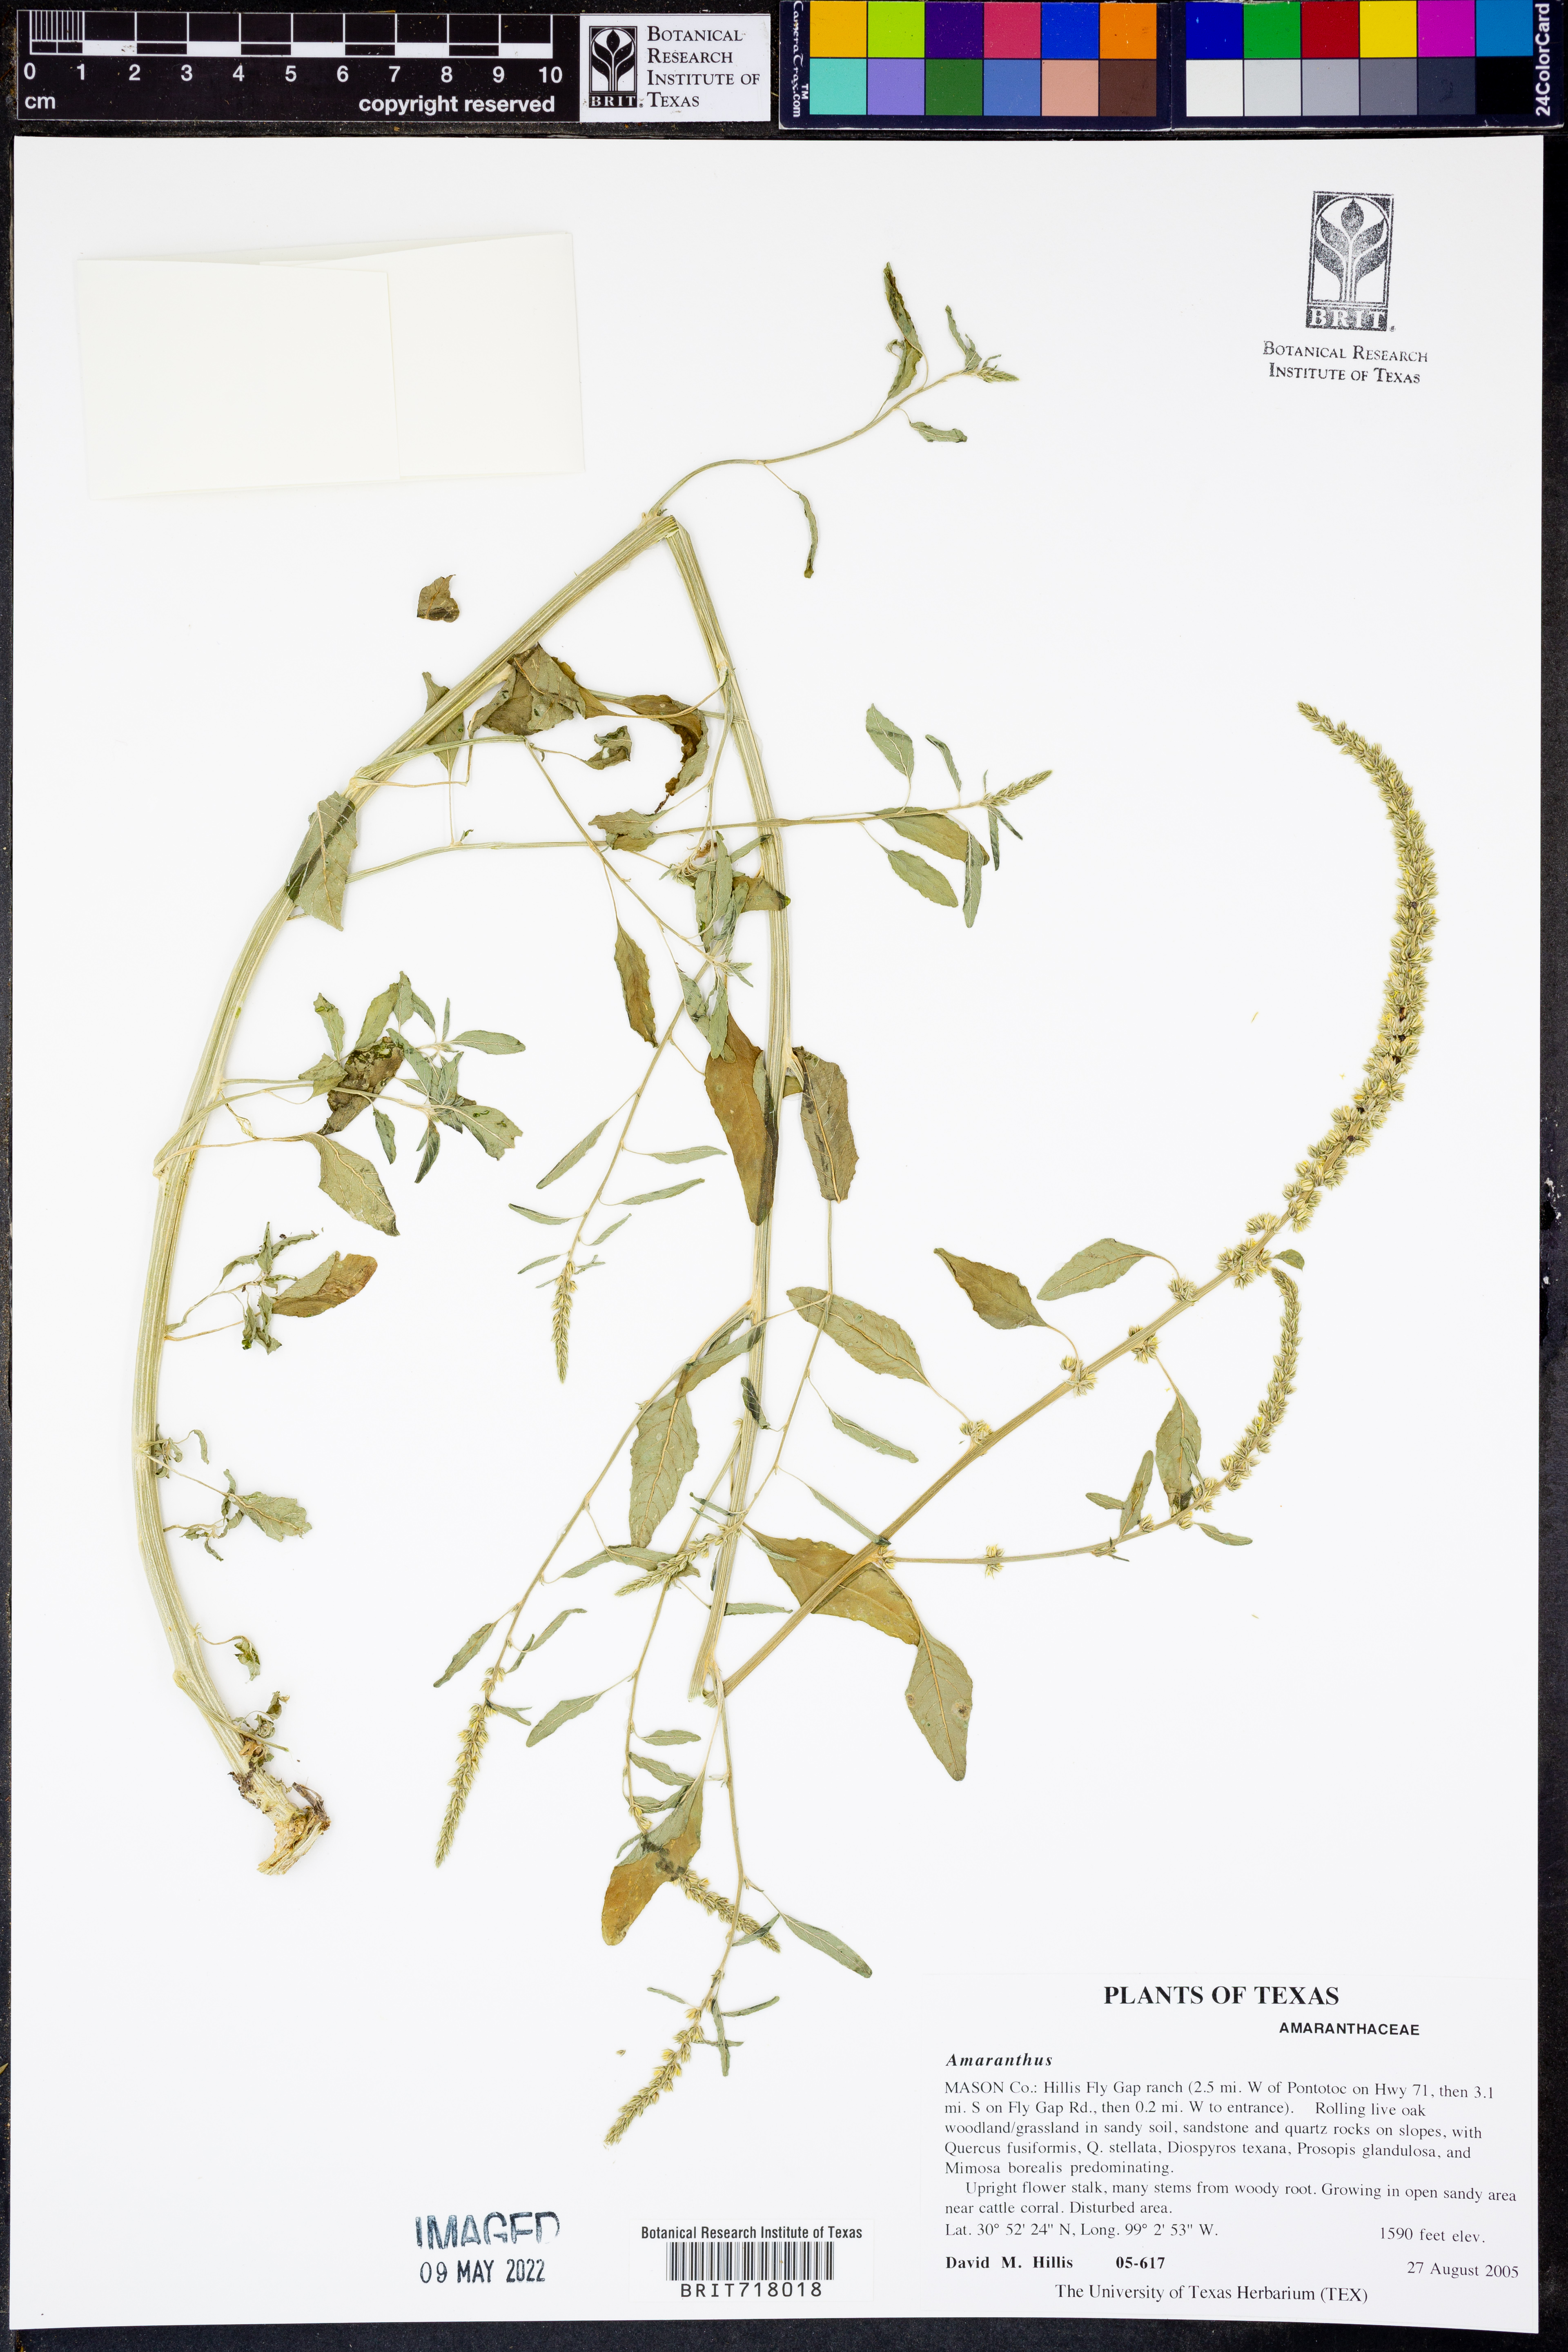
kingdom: Plantae
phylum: Tracheophyta
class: Magnoliopsida
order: Caryophyllales
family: Amaranthaceae
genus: Amaranthus
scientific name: Amaranthus
